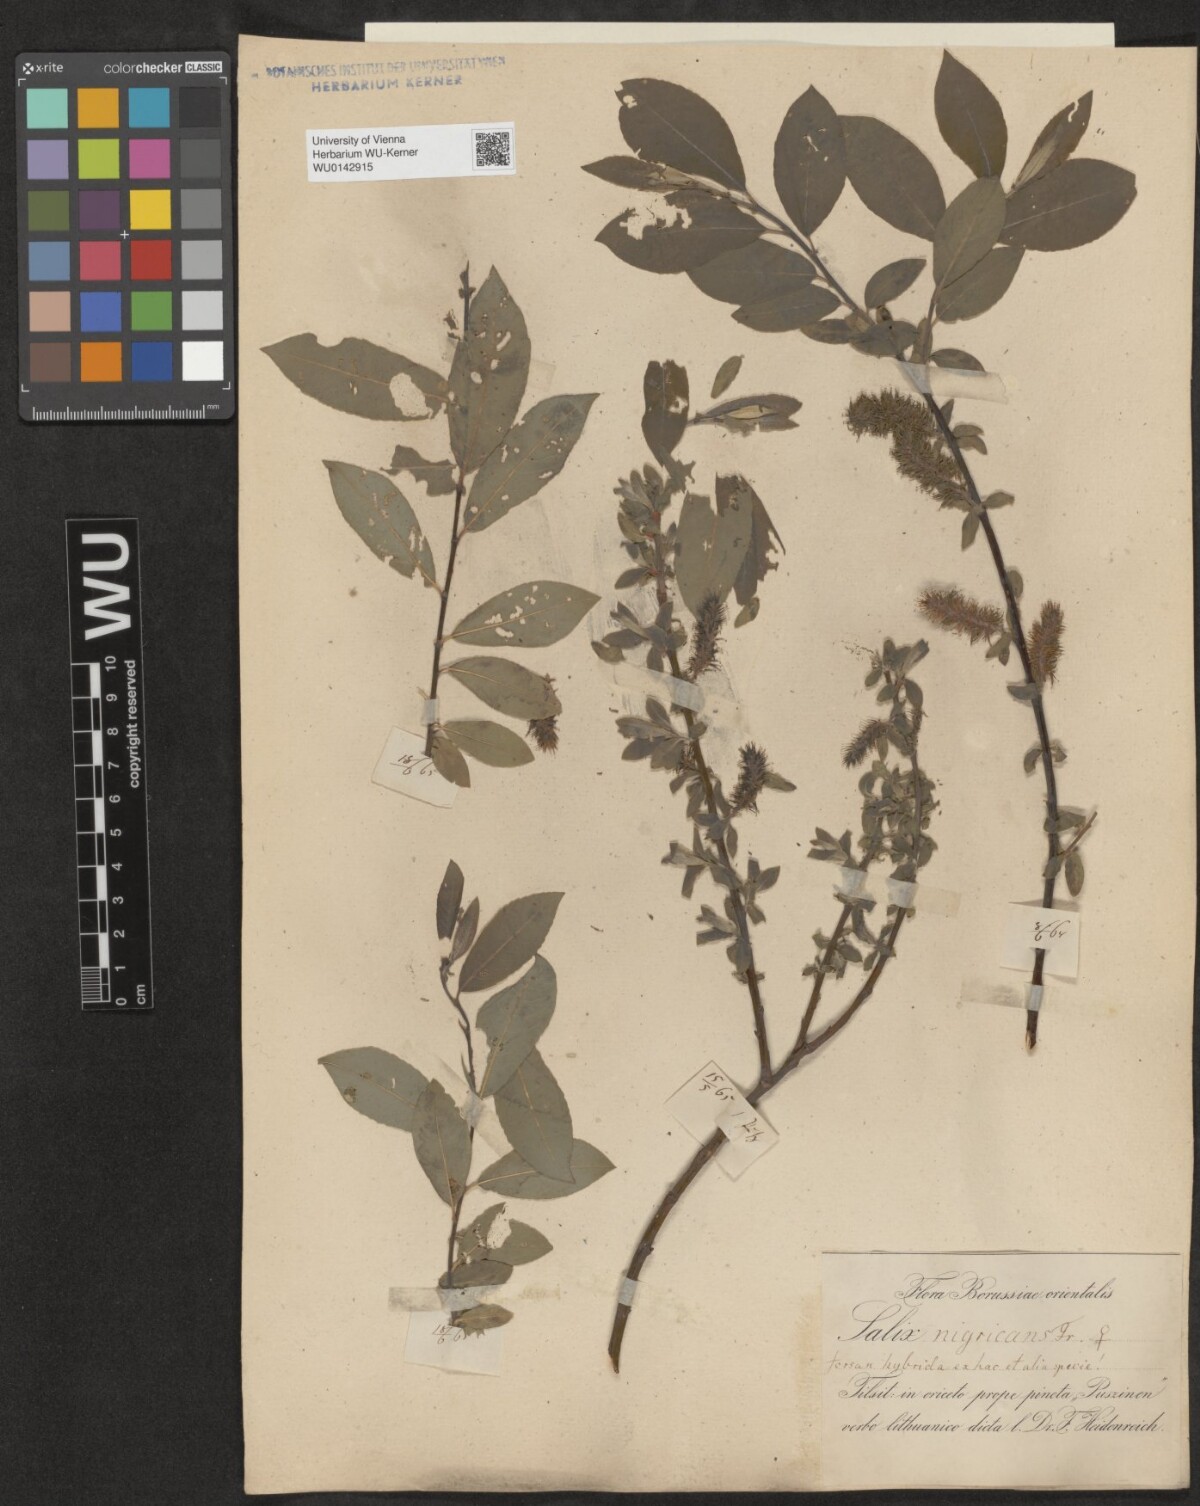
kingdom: Plantae
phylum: Tracheophyta
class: Magnoliopsida
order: Malpighiales
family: Salicaceae
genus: Salix
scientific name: Salix myrsinifolia
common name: Dark-leaved willow
